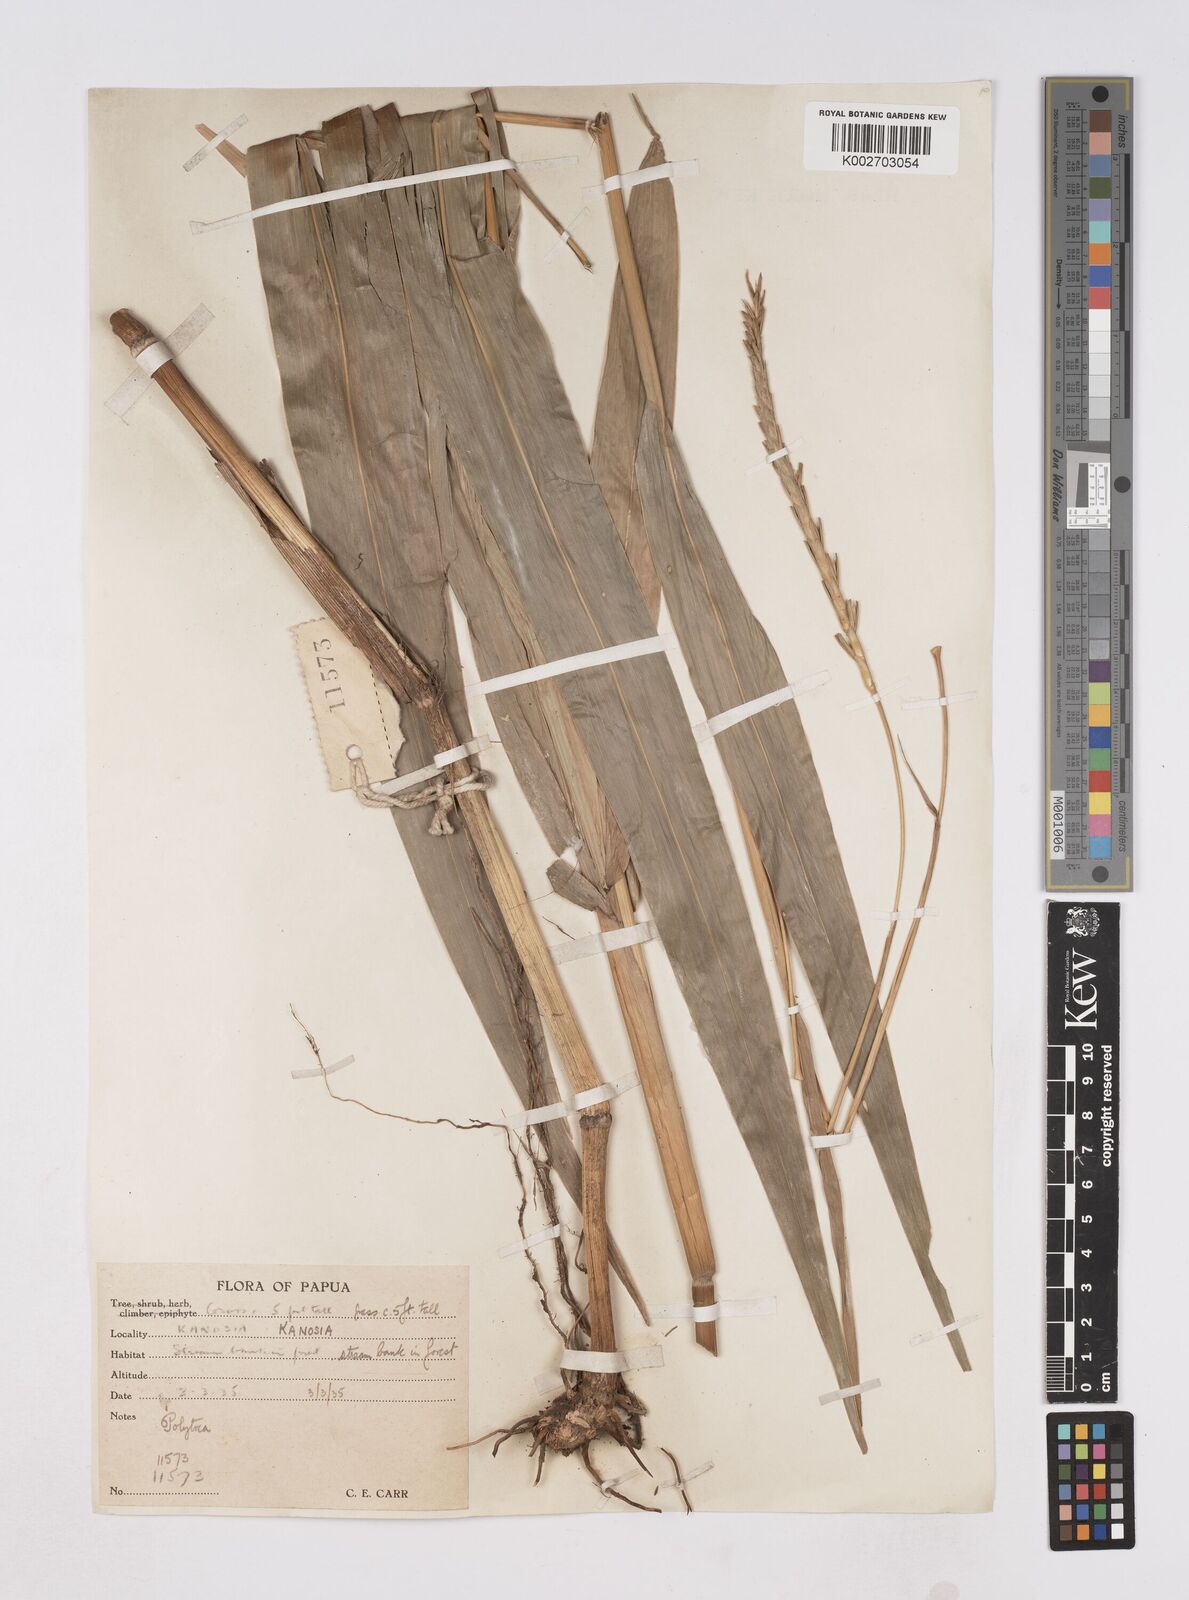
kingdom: Plantae
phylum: Tracheophyta
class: Liliopsida
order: Poales
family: Poaceae
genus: Polytoca
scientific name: Polytoca macrophylla
